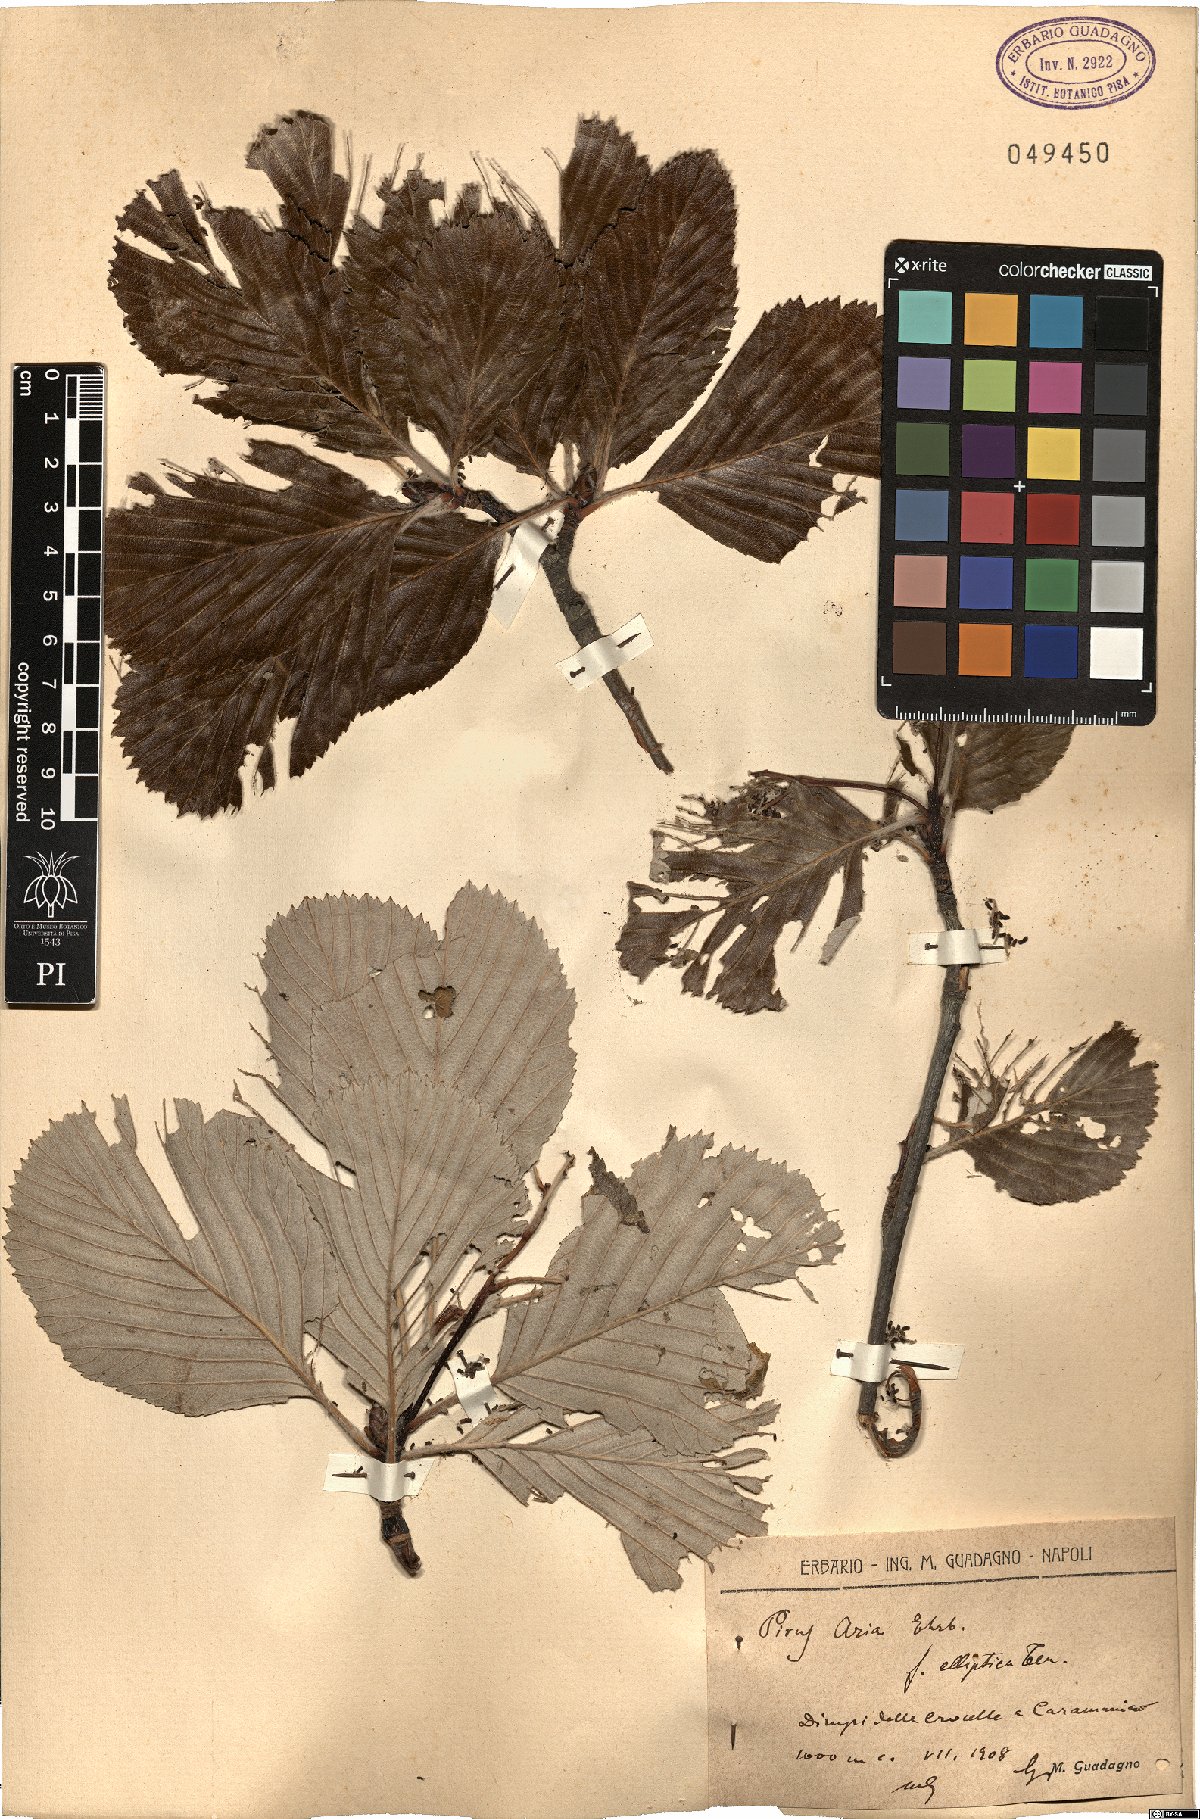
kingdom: Plantae
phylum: Tracheophyta
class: Magnoliopsida
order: Rosales
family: Rosaceae
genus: Aria
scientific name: Aria edulis
